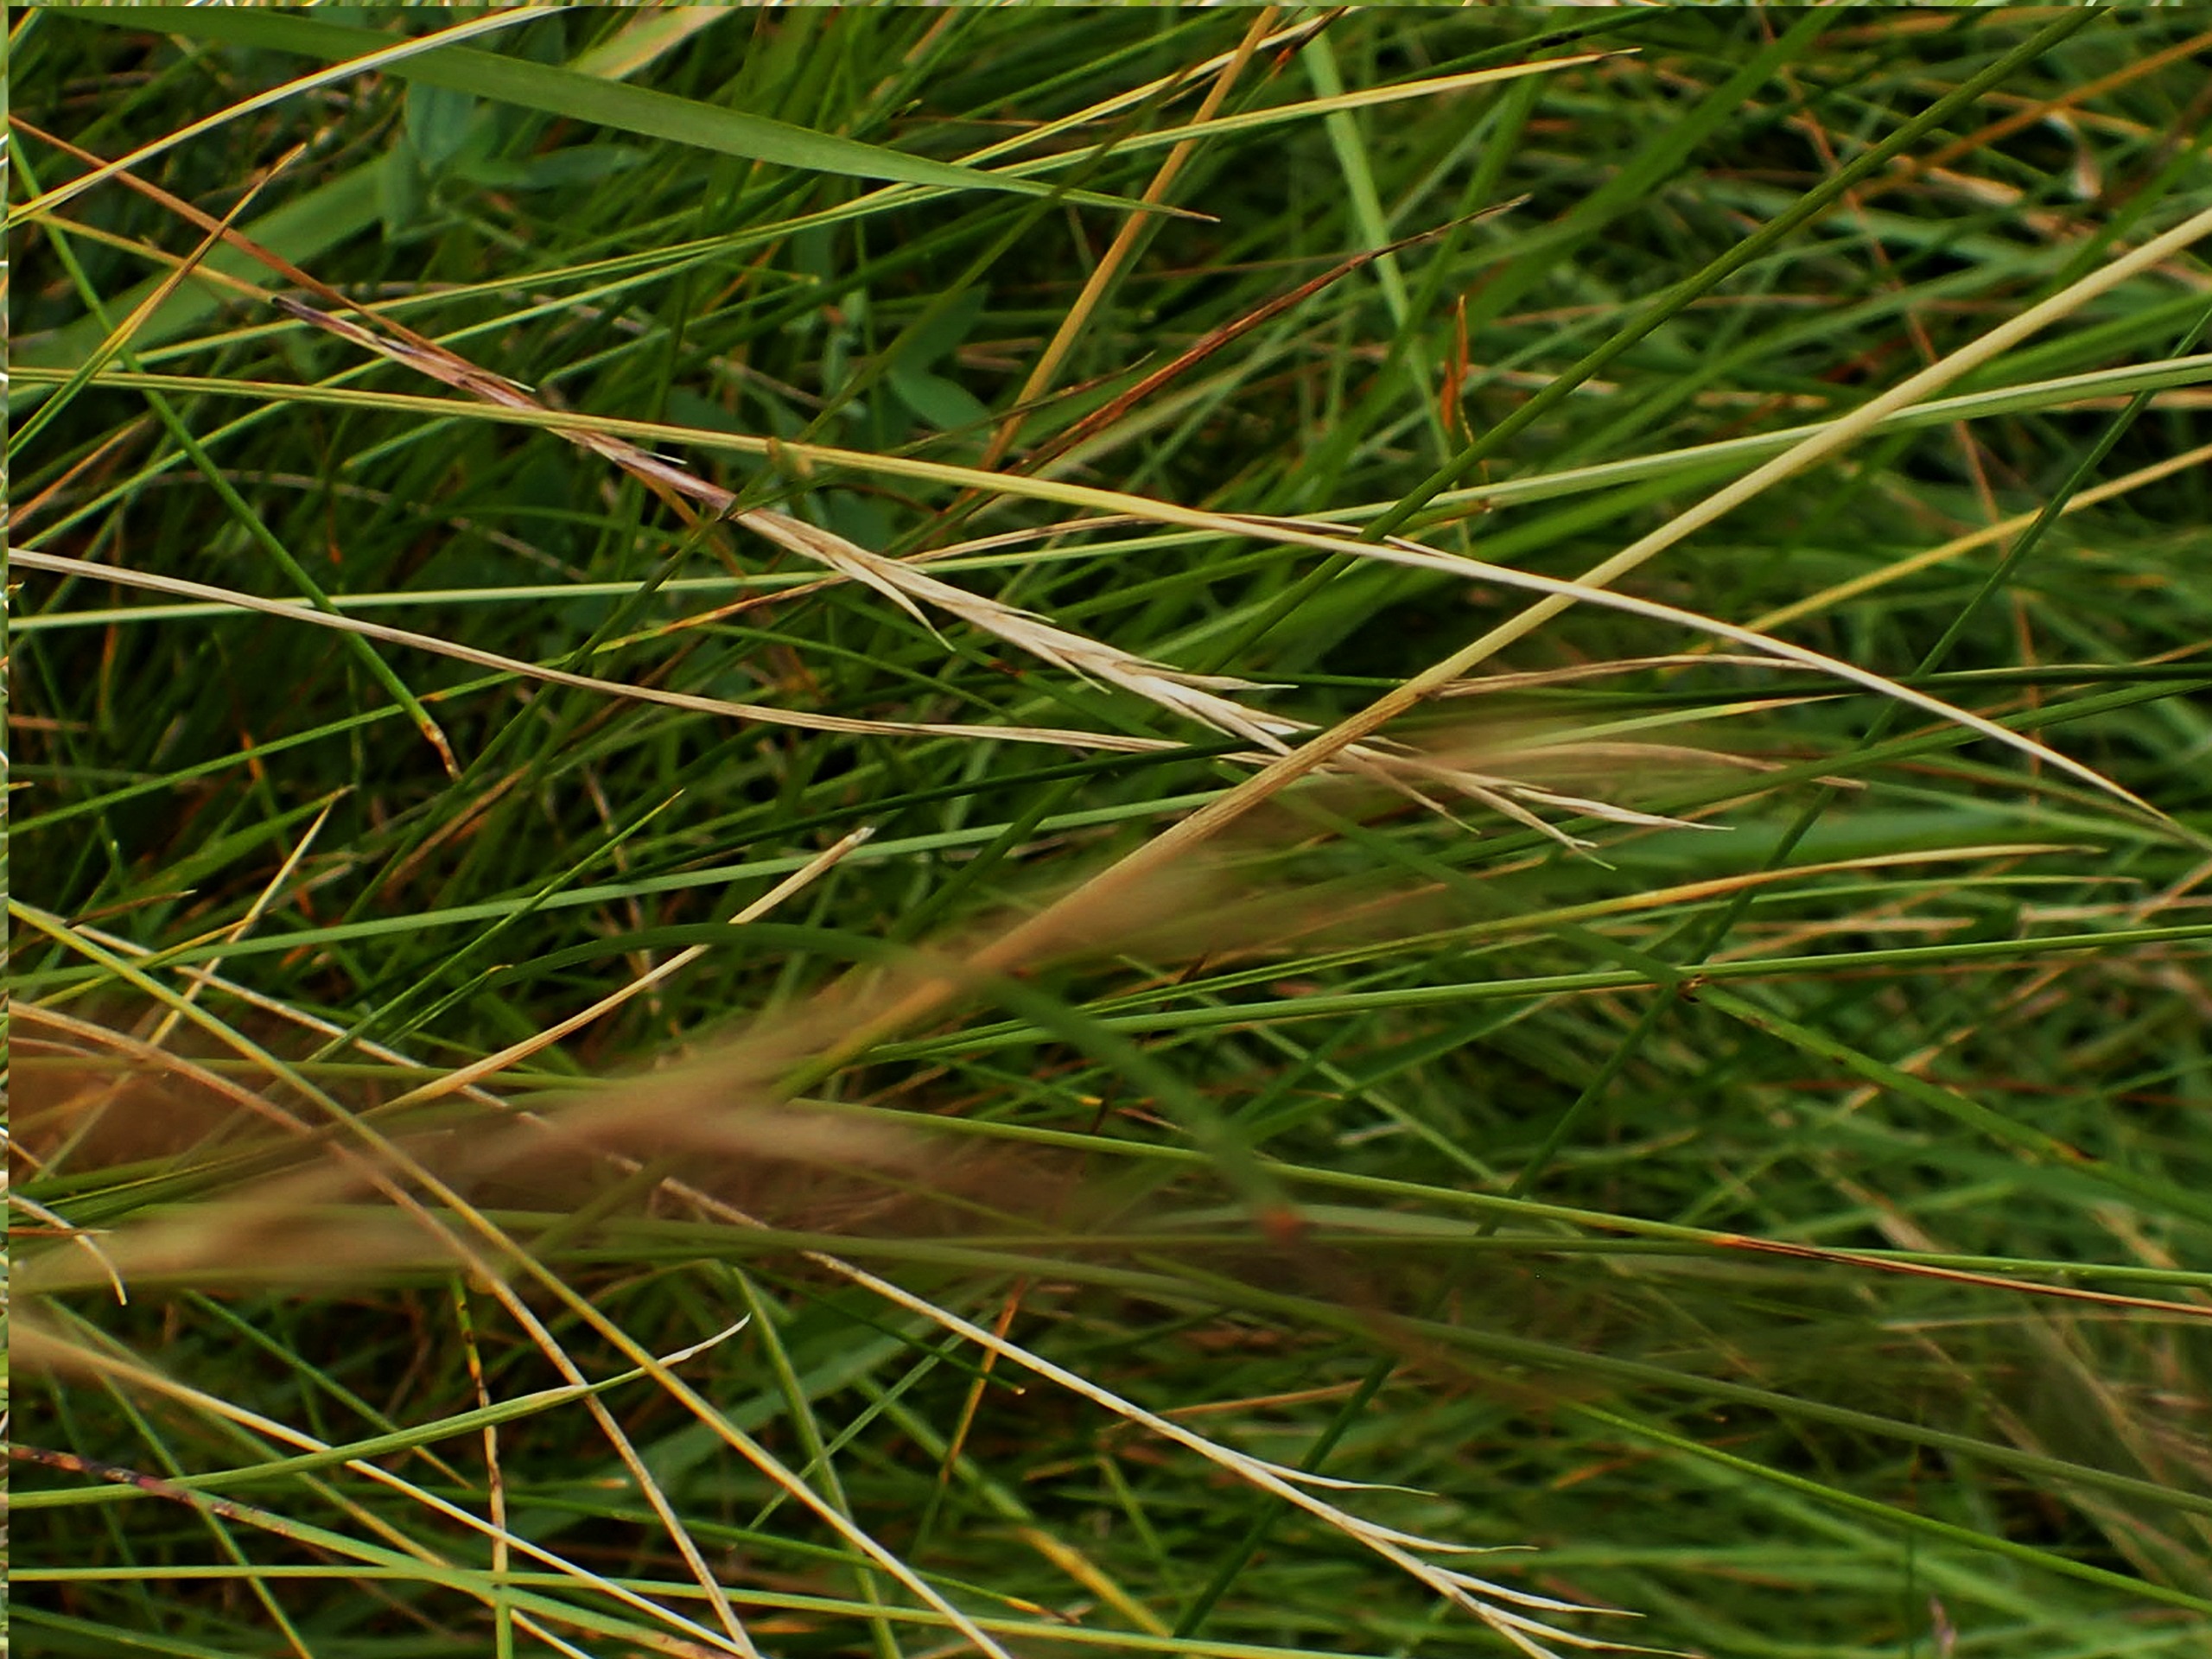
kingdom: Plantae
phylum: Tracheophyta
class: Liliopsida
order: Poales
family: Poaceae
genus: Nardus
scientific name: Nardus stricta
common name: Katteskæg
